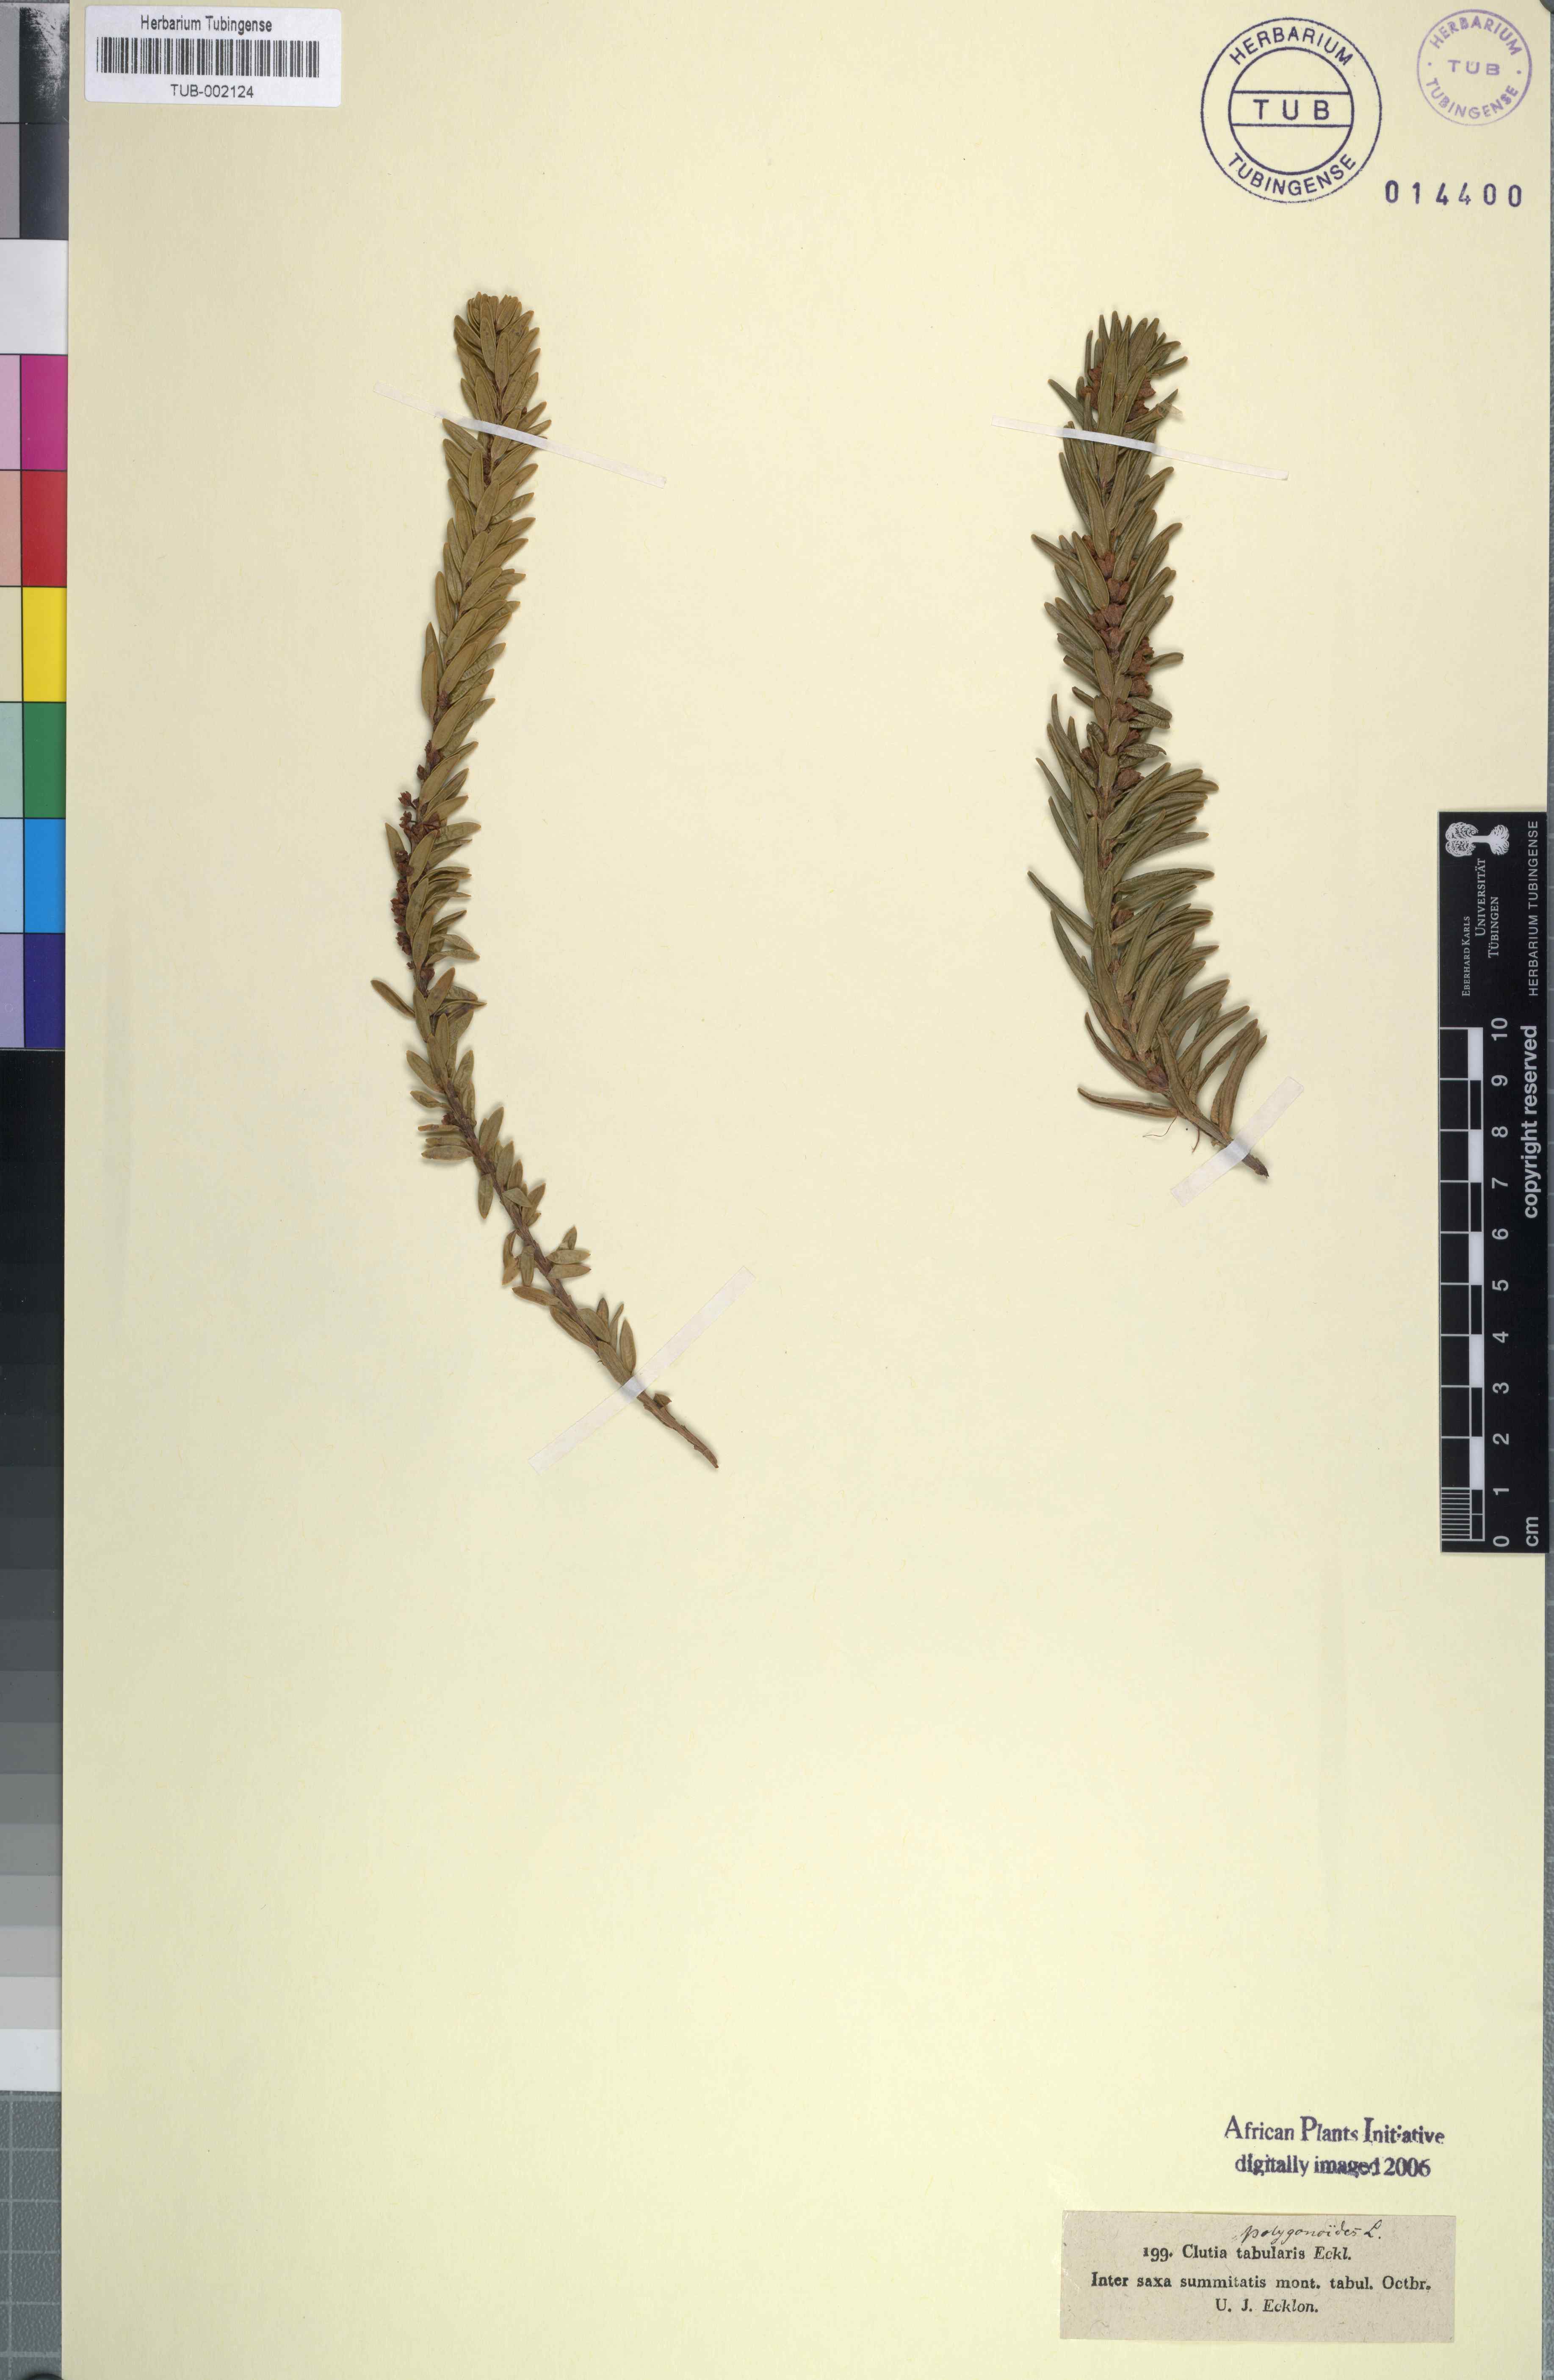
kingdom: Plantae
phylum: Tracheophyta
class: Magnoliopsida
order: Malpighiales
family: Peraceae
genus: Clutia
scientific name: Clutia polygonoides
